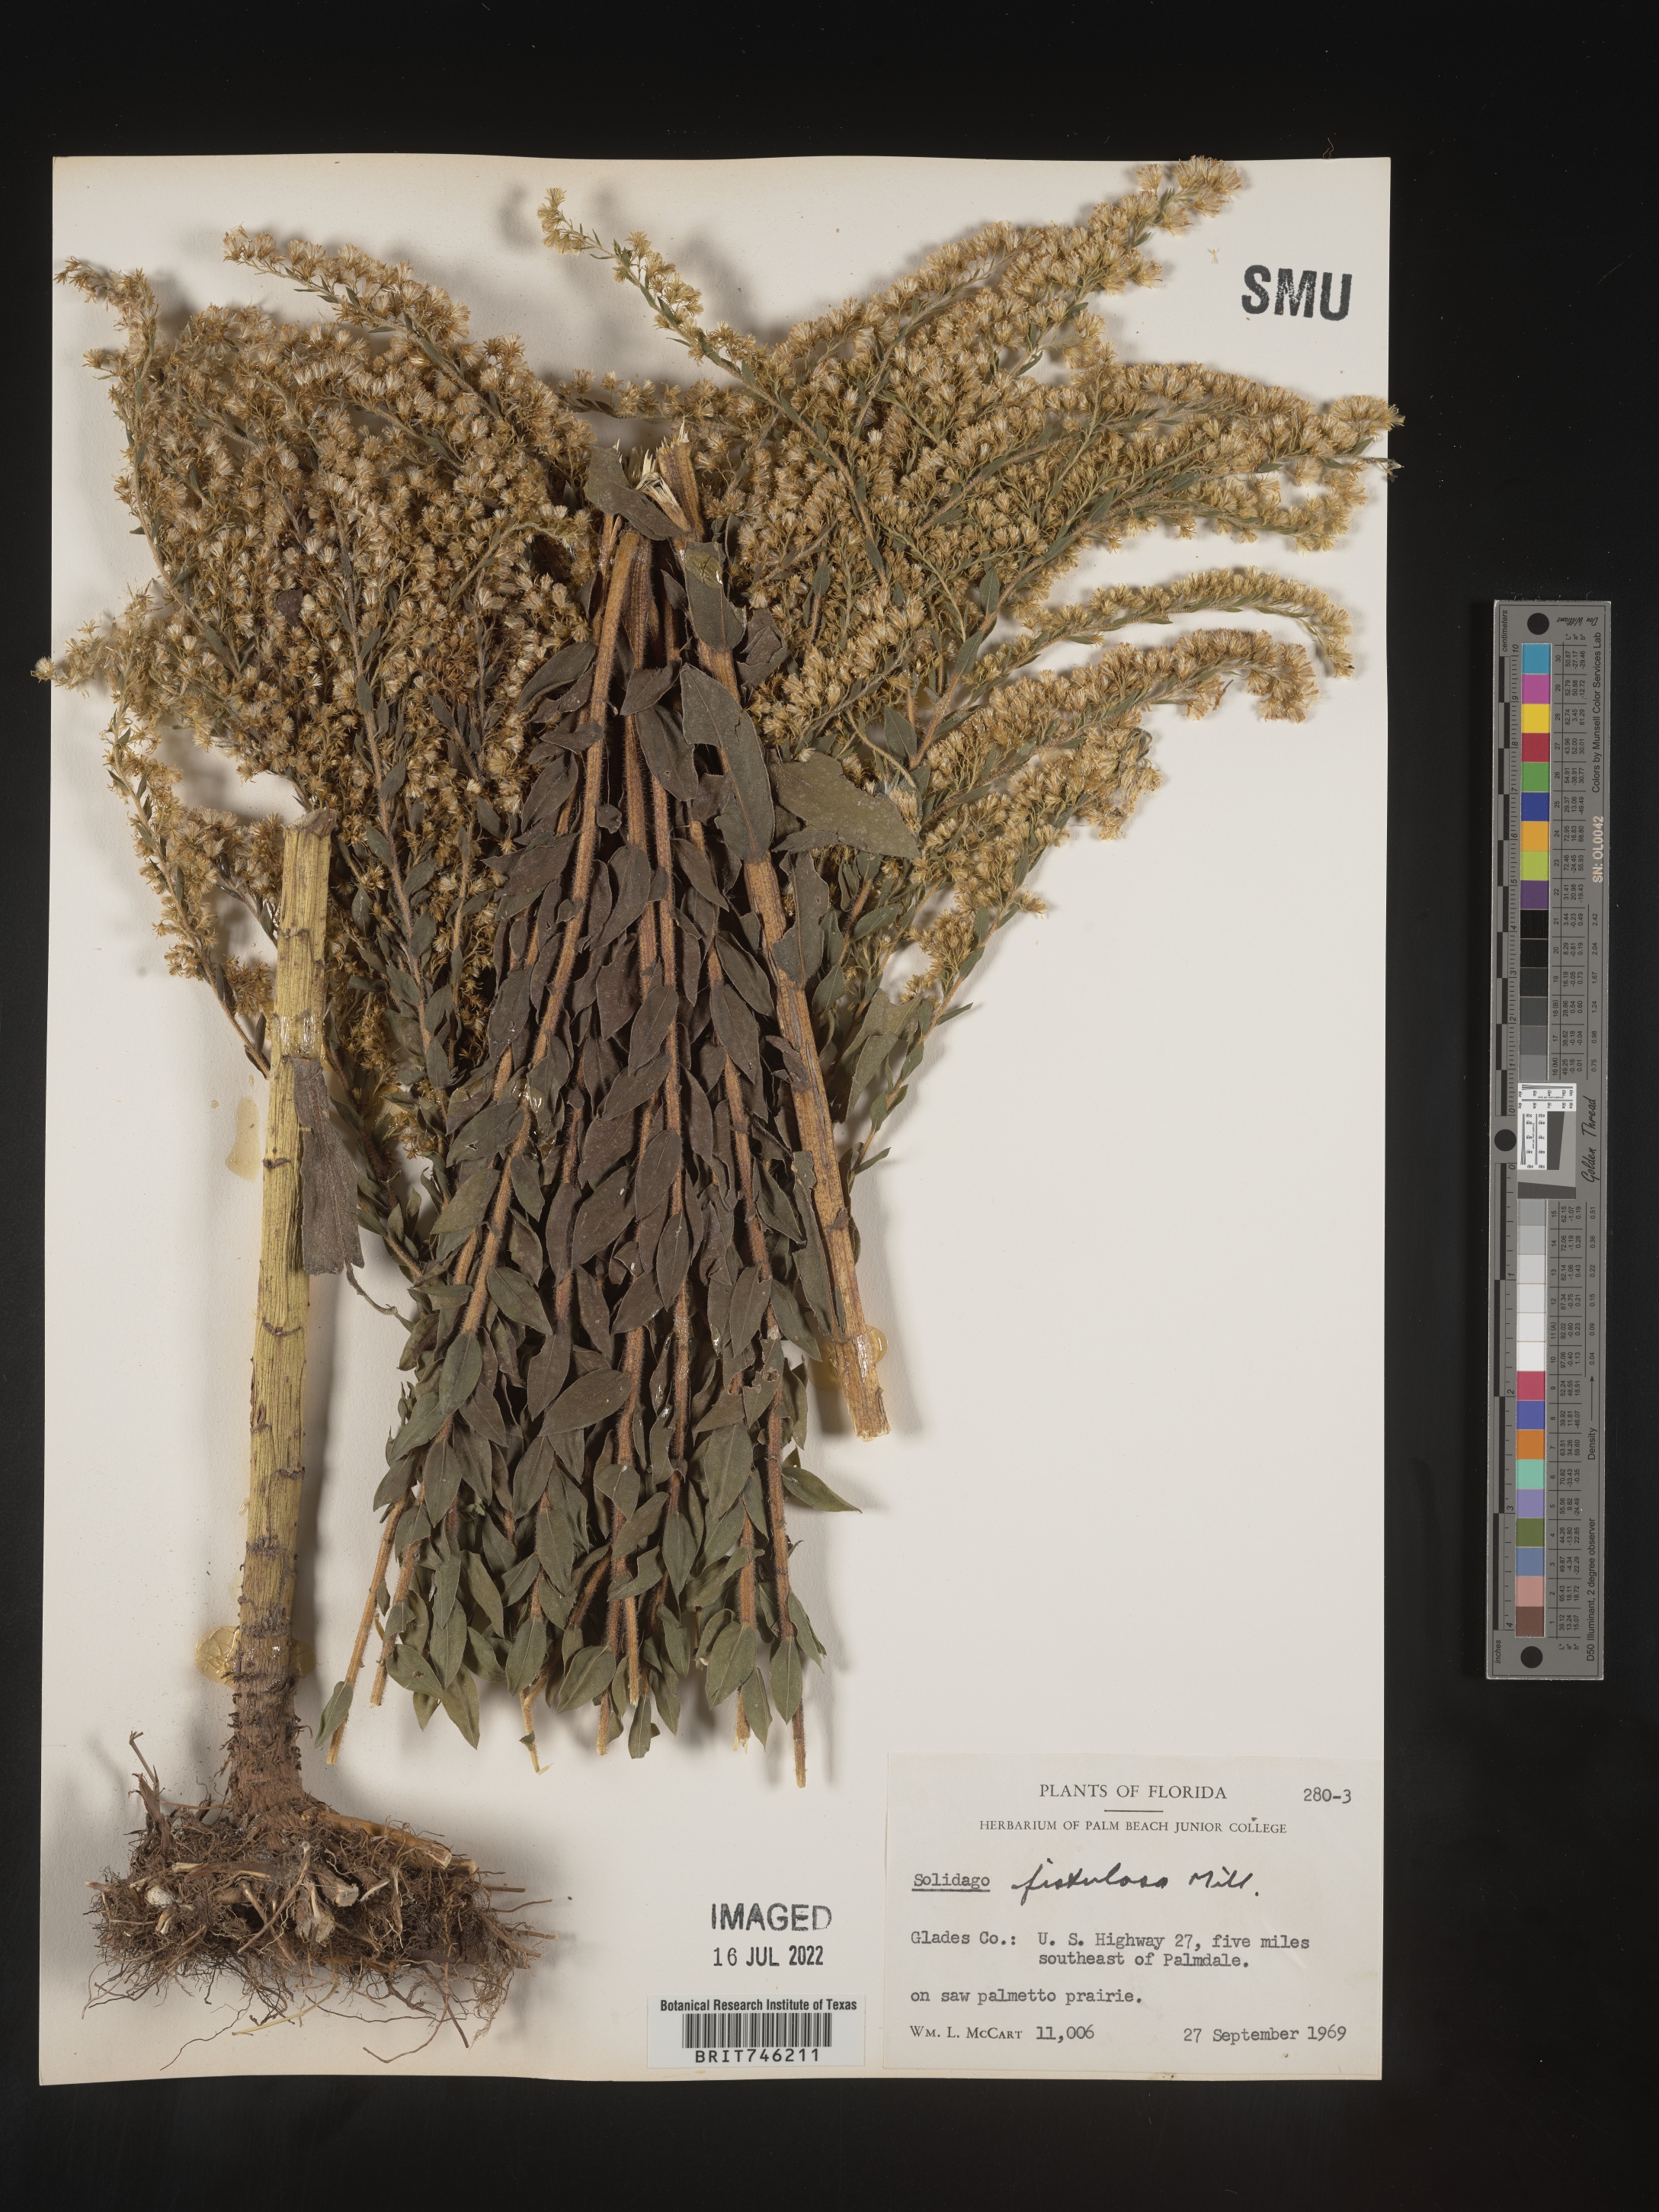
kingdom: Plantae
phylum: Tracheophyta
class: Magnoliopsida
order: Asterales
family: Asteraceae
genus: Solidago
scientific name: Solidago fistulosa
